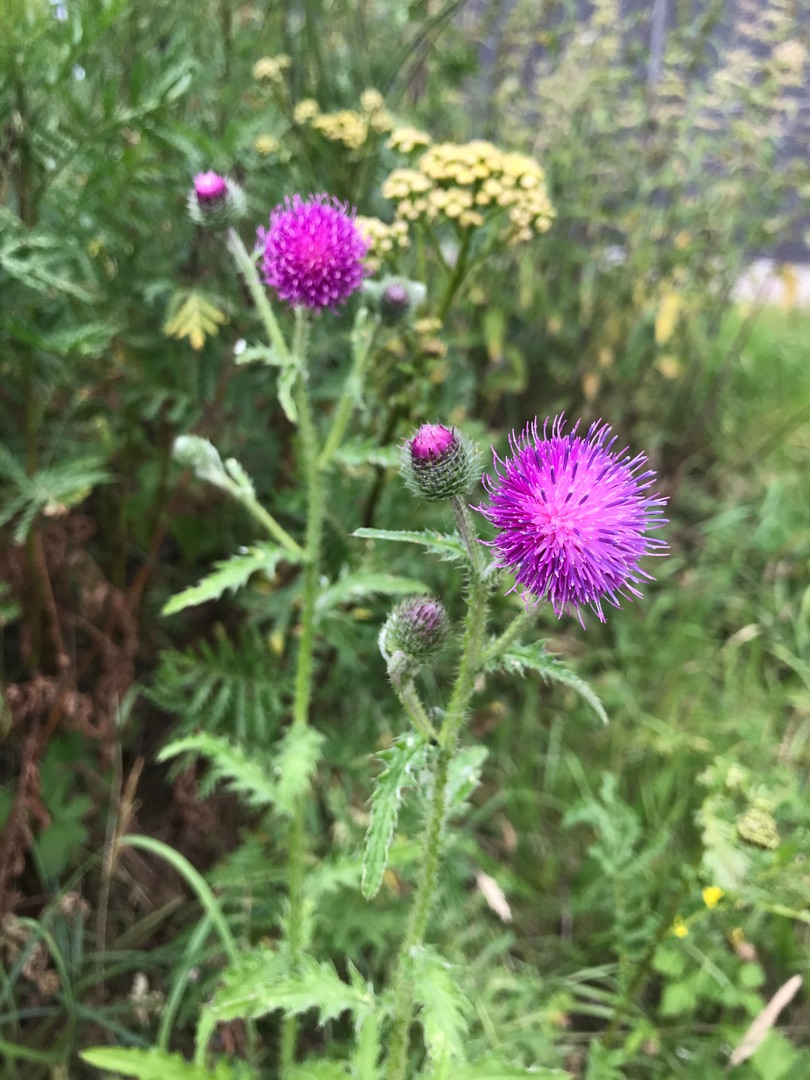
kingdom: Plantae
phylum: Tracheophyta
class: Magnoliopsida
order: Asterales
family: Asteraceae
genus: Carduus
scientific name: Carduus crispus
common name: Kruset tidsel
